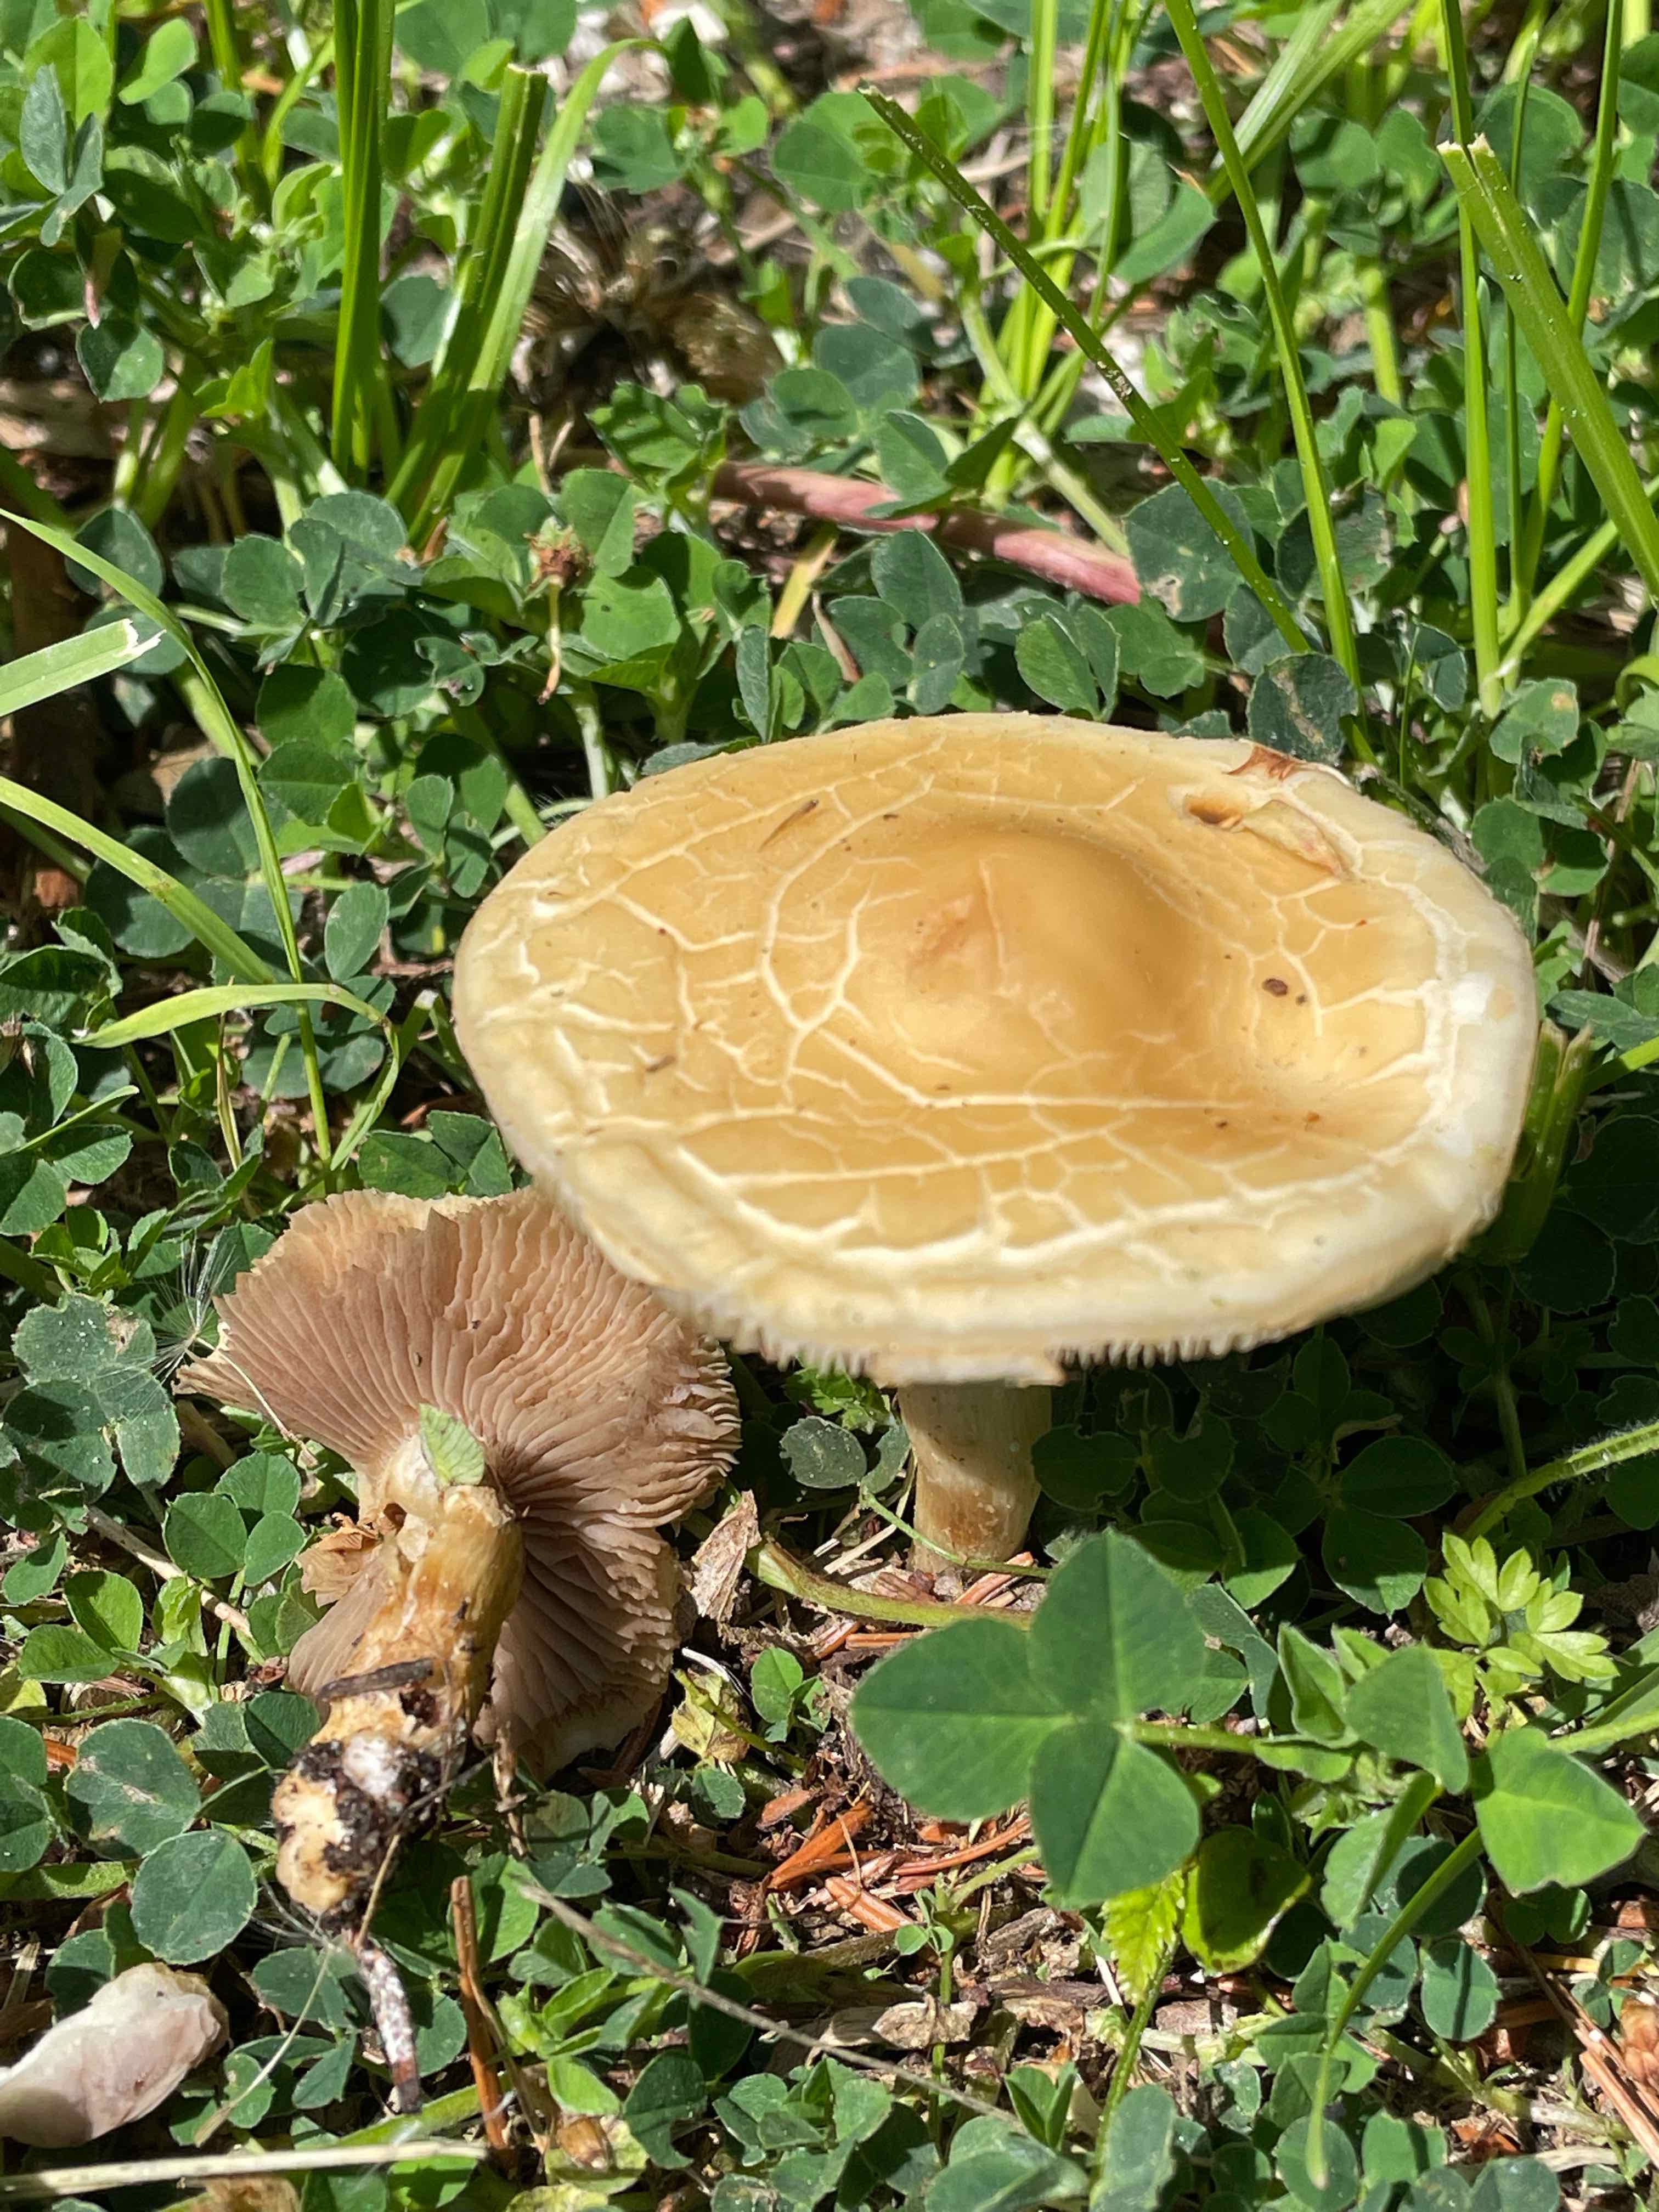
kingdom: Fungi
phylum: Basidiomycota
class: Agaricomycetes
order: Agaricales
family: Strophariaceae
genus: Agrocybe
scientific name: Agrocybe praecox
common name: tidlig agerhat
